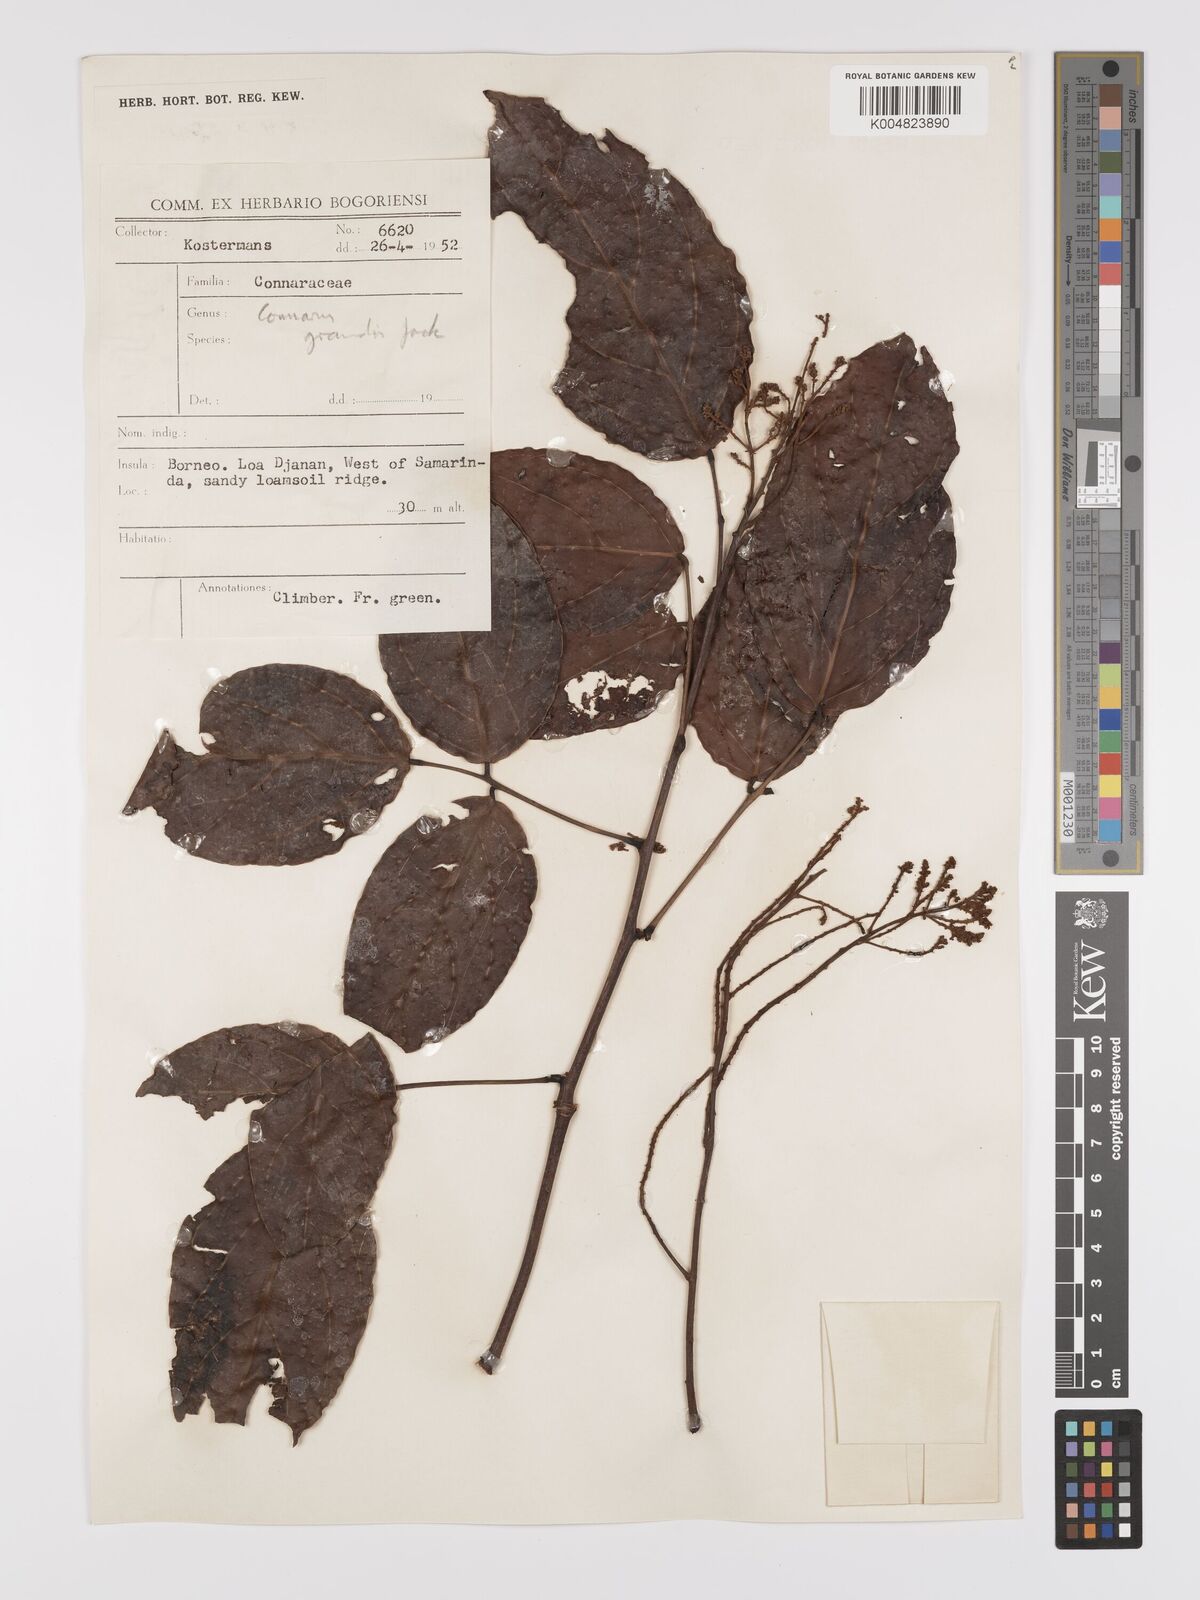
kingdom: Plantae
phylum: Tracheophyta
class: Magnoliopsida
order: Oxalidales
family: Connaraceae
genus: Connarus
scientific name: Connarus grandis
